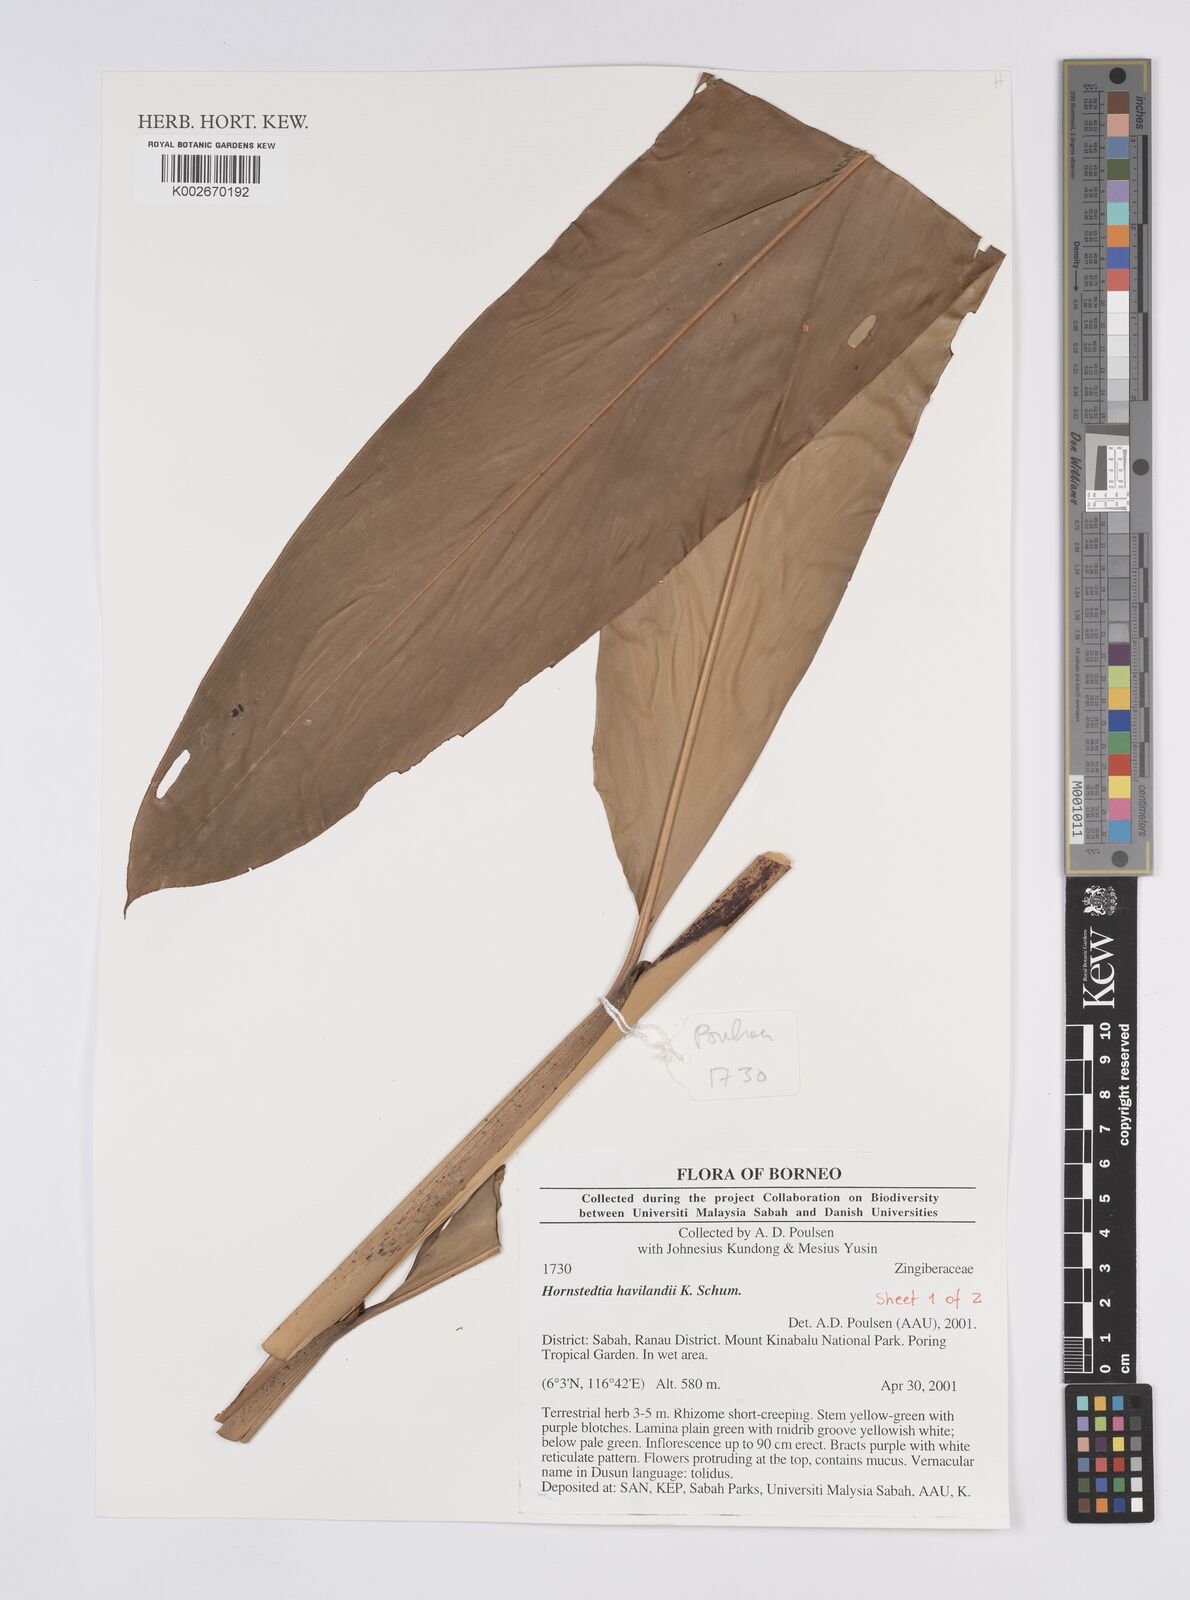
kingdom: Plantae
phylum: Tracheophyta
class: Liliopsida
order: Zingiberales
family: Zingiberaceae
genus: Hornstedtia
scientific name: Hornstedtia havilandii
